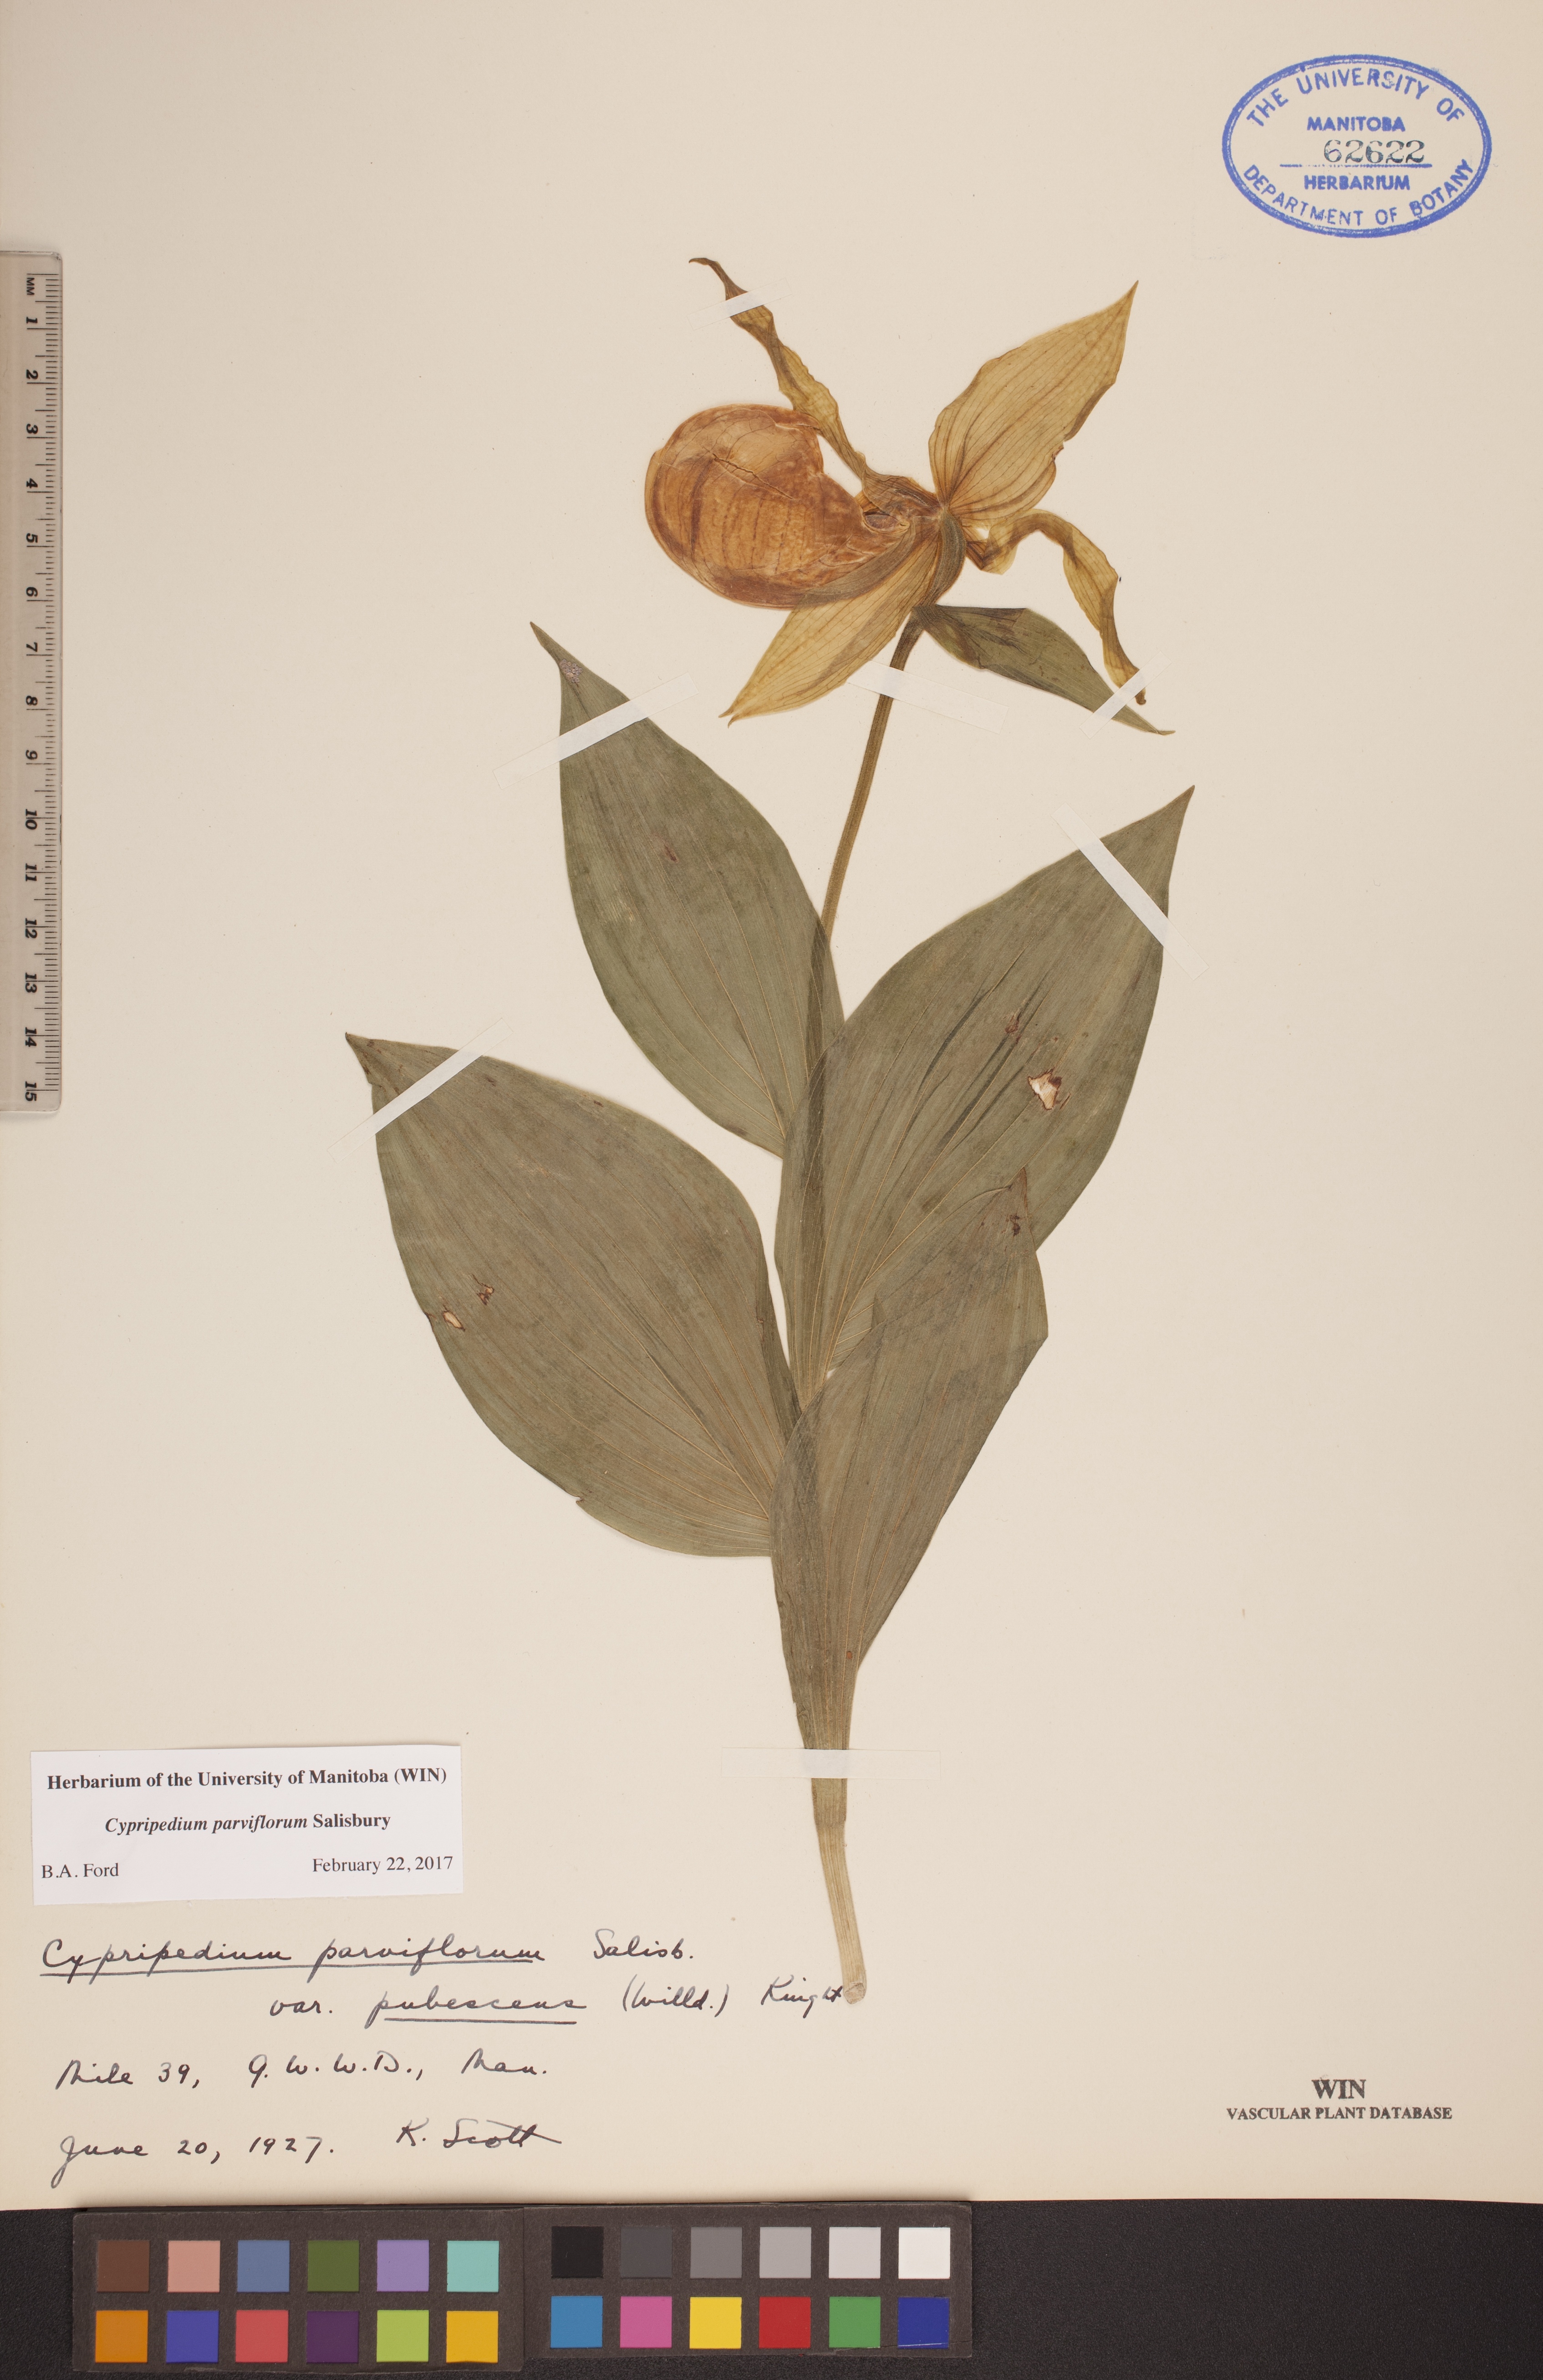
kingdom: Plantae
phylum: Tracheophyta
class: Liliopsida
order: Asparagales
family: Orchidaceae
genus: Cypripedium
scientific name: Cypripedium parviflorum
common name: American yellow lady's-slipper
